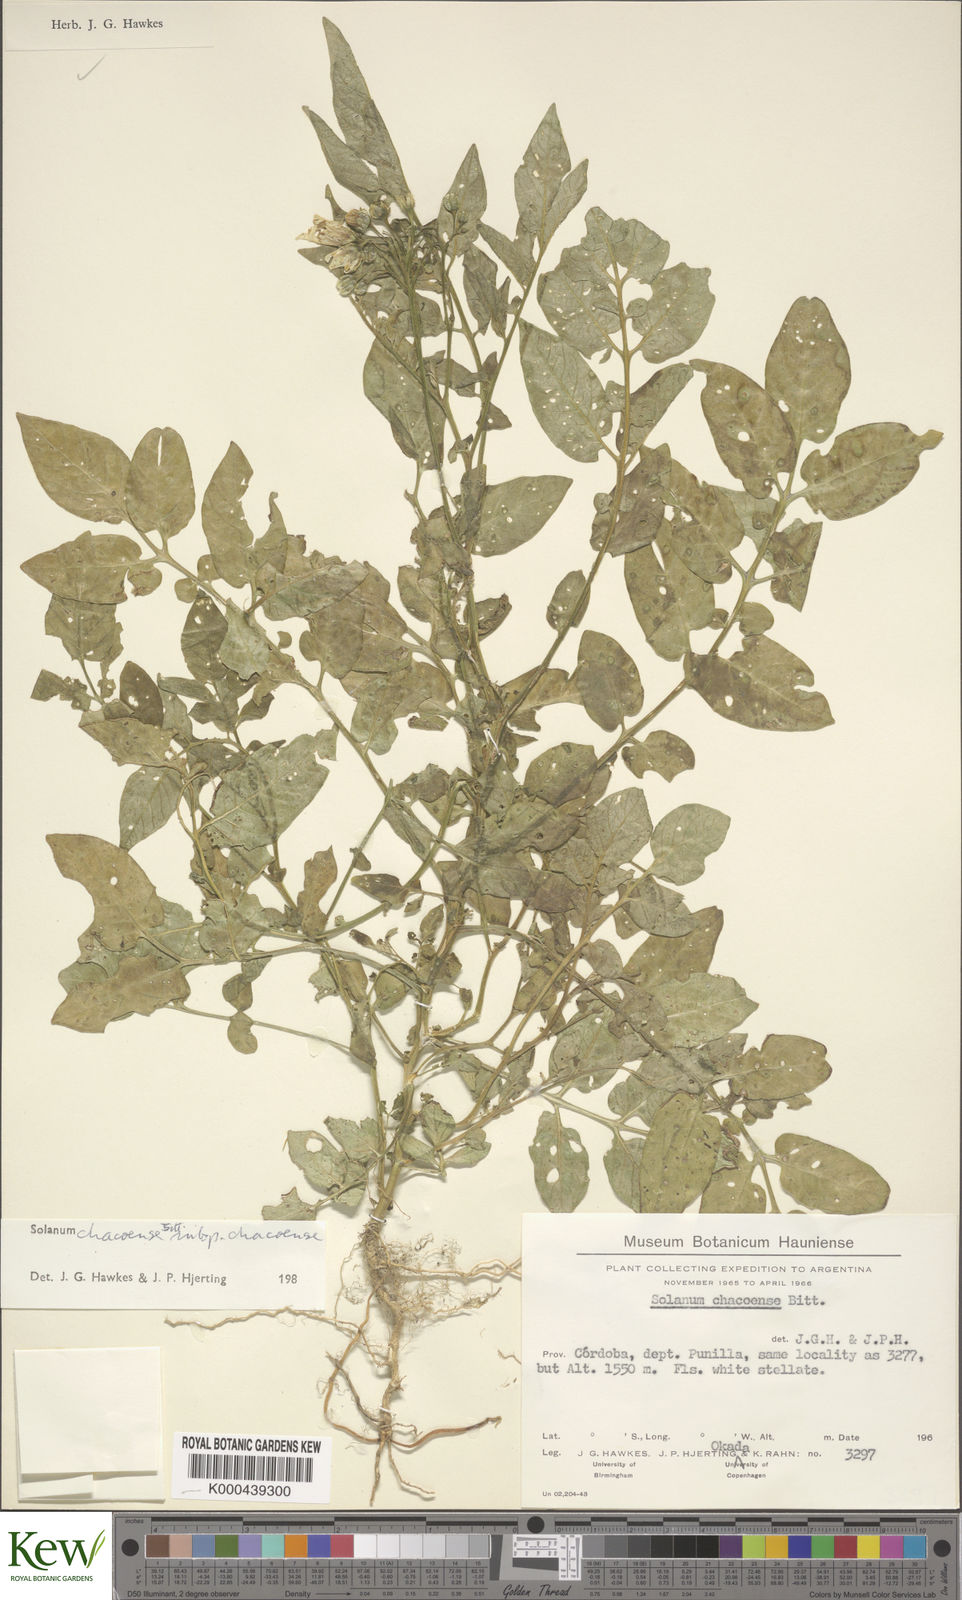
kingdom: Plantae
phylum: Tracheophyta
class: Magnoliopsida
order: Solanales
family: Solanaceae
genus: Solanum
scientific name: Solanum chacoense
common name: Chaco potato
